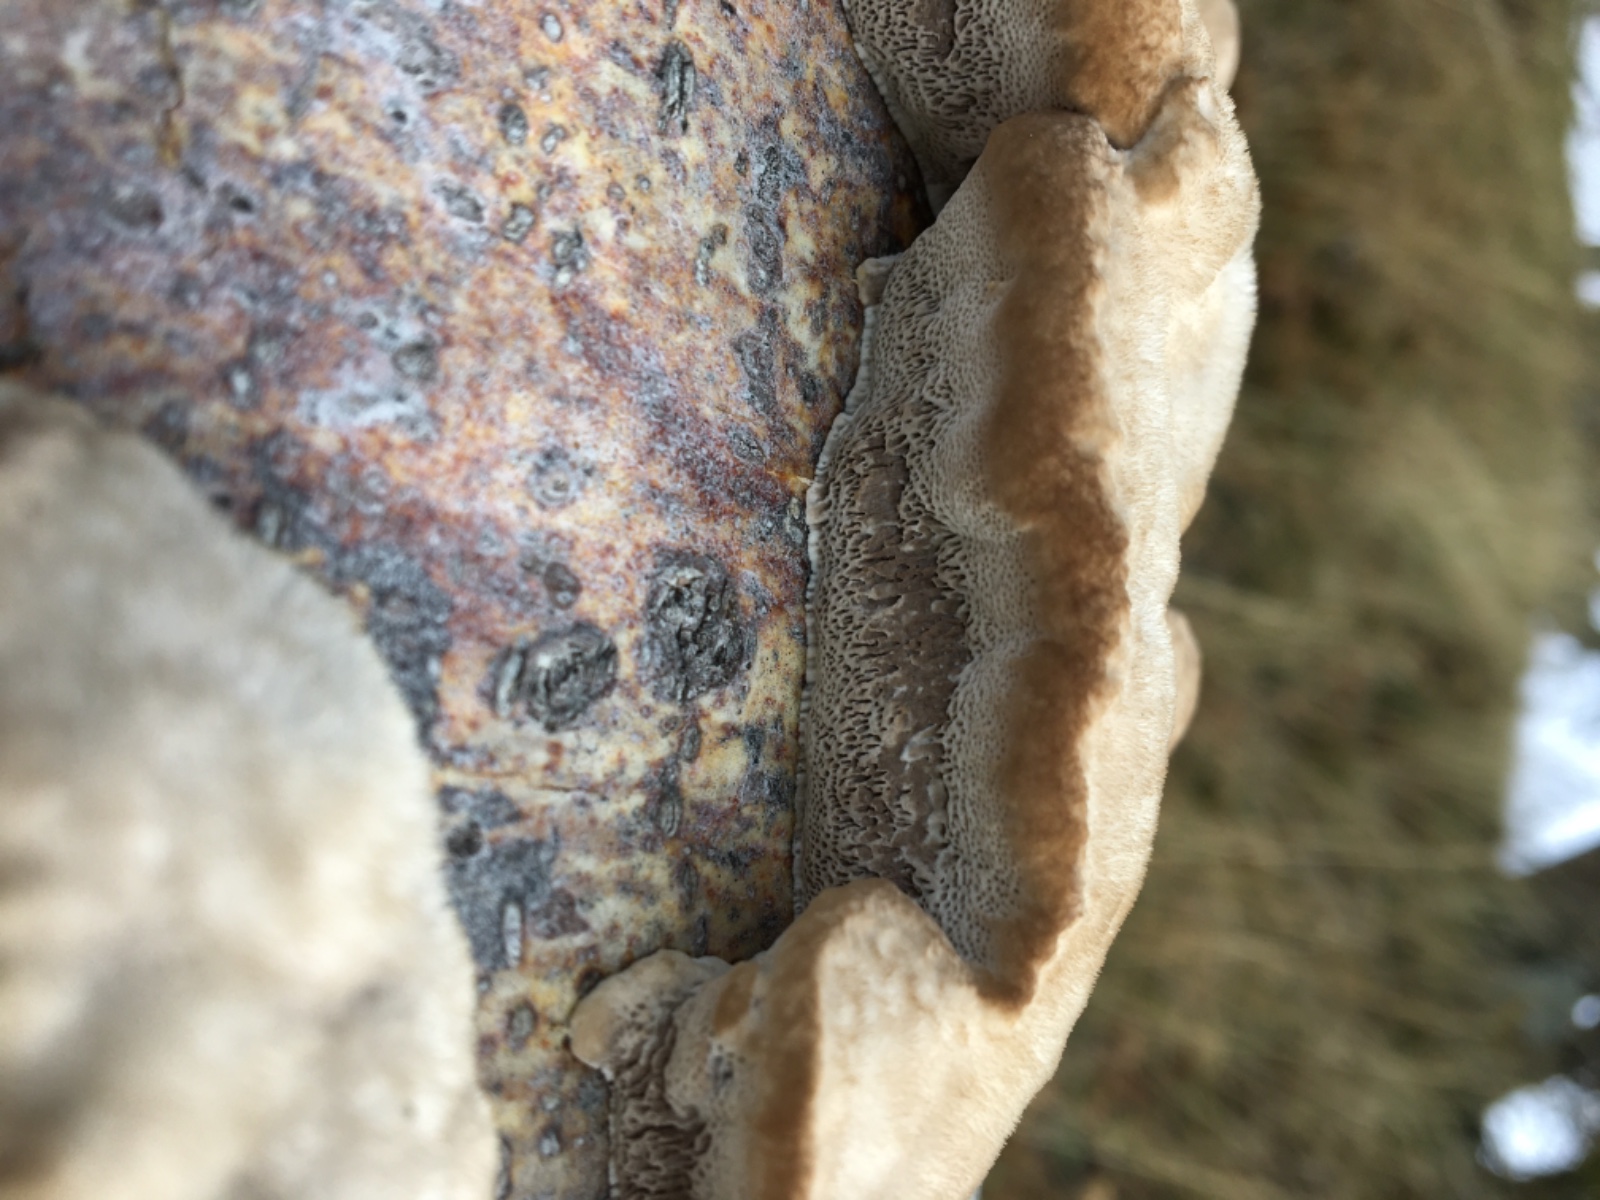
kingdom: Fungi
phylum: Basidiomycota
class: Agaricomycetes
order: Polyporales
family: Polyporaceae
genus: Trametes
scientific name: Trametes hirsuta
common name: håret læderporesvamp
